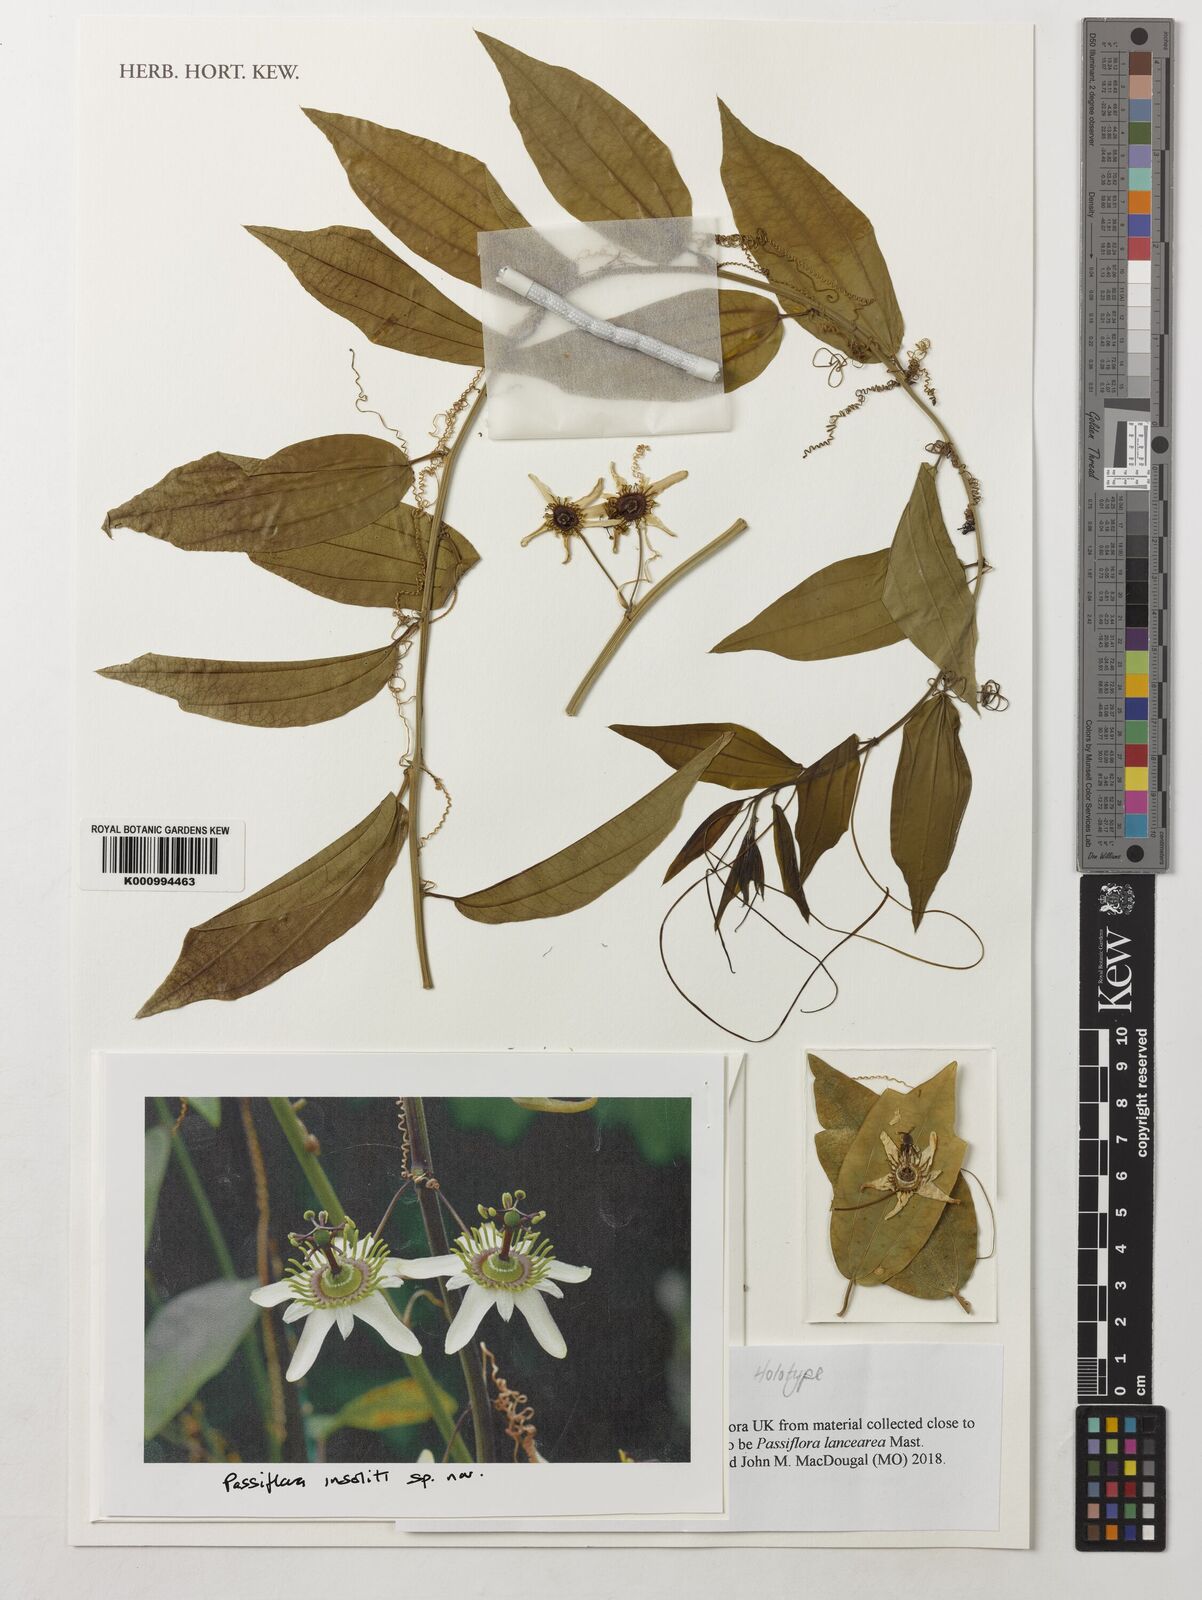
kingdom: Plantae
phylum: Tracheophyta
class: Magnoliopsida
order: Malpighiales
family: Passifloraceae
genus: Passiflora
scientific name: Passiflora
